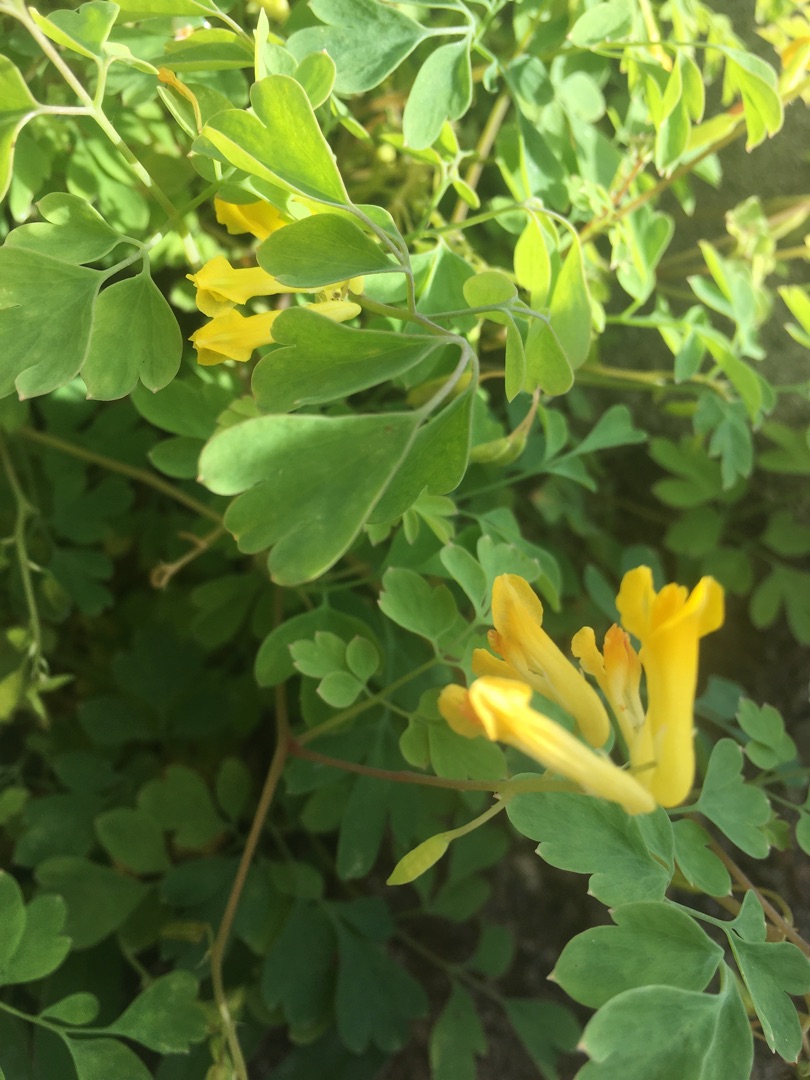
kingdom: Plantae
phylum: Tracheophyta
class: Magnoliopsida
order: Ranunculales
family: Papaveraceae
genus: Pseudofumaria
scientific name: Pseudofumaria lutea
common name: Gul lærkespore
